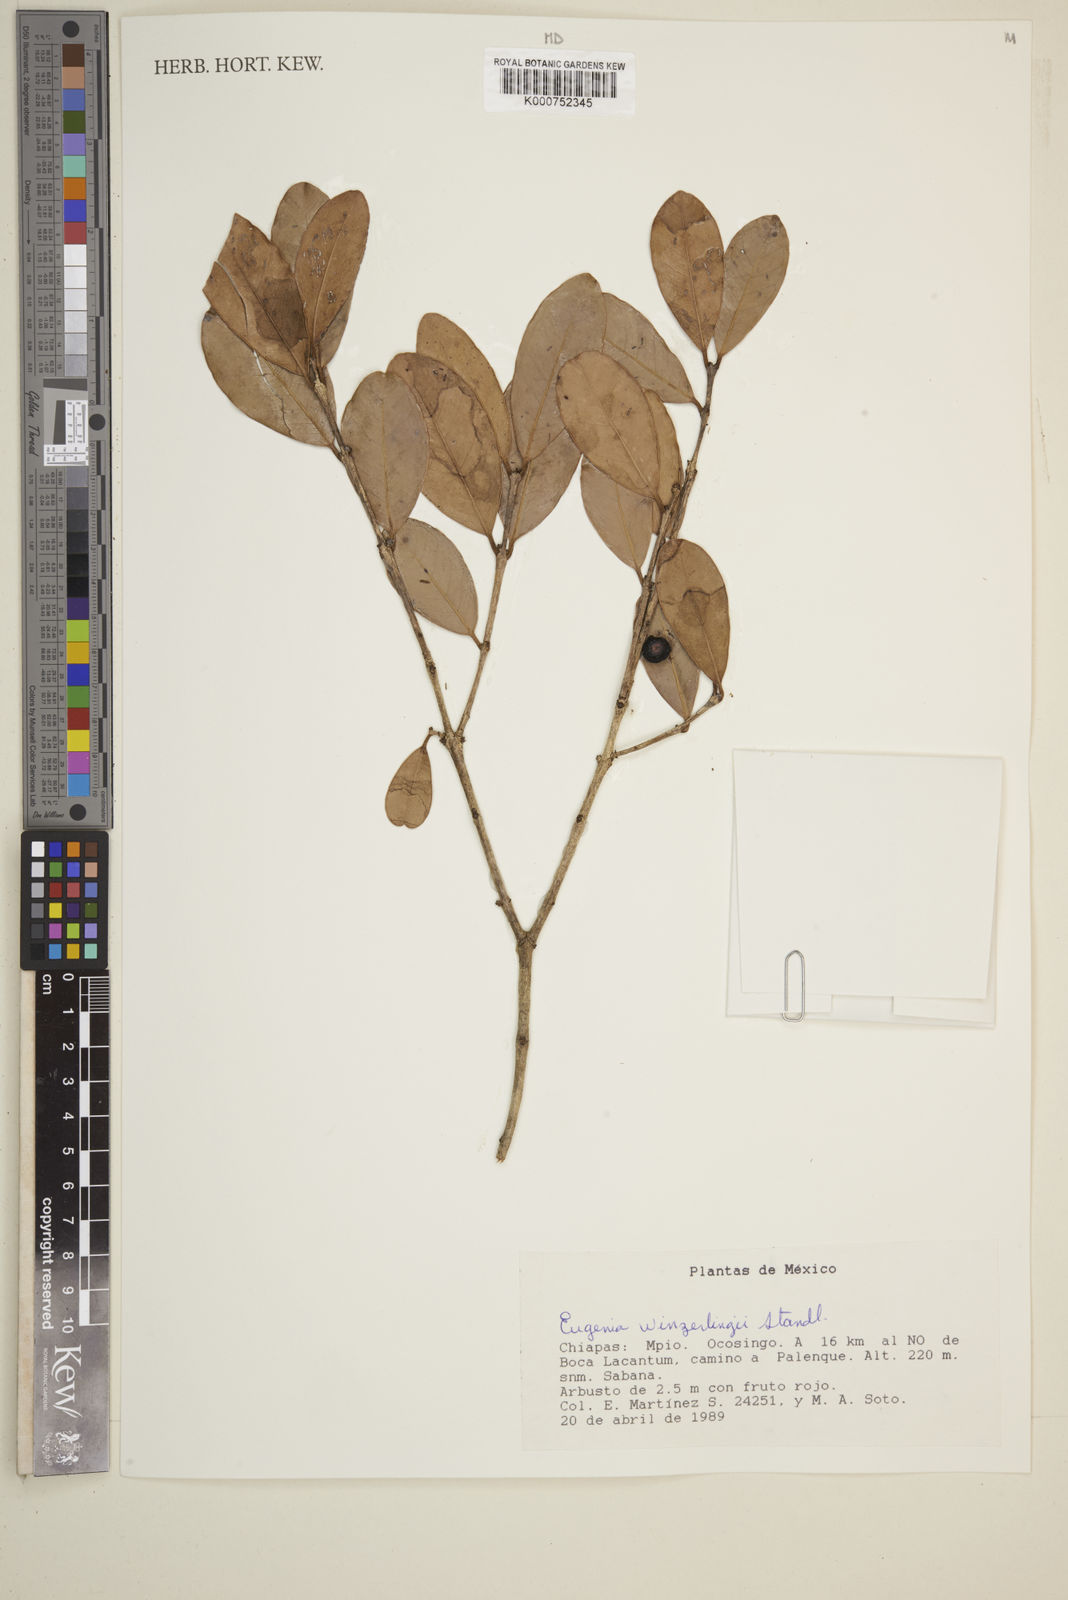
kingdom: Plantae
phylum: Tracheophyta
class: Magnoliopsida
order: Myrtales
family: Myrtaceae
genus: Eugenia
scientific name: Eugenia winzerlingii
